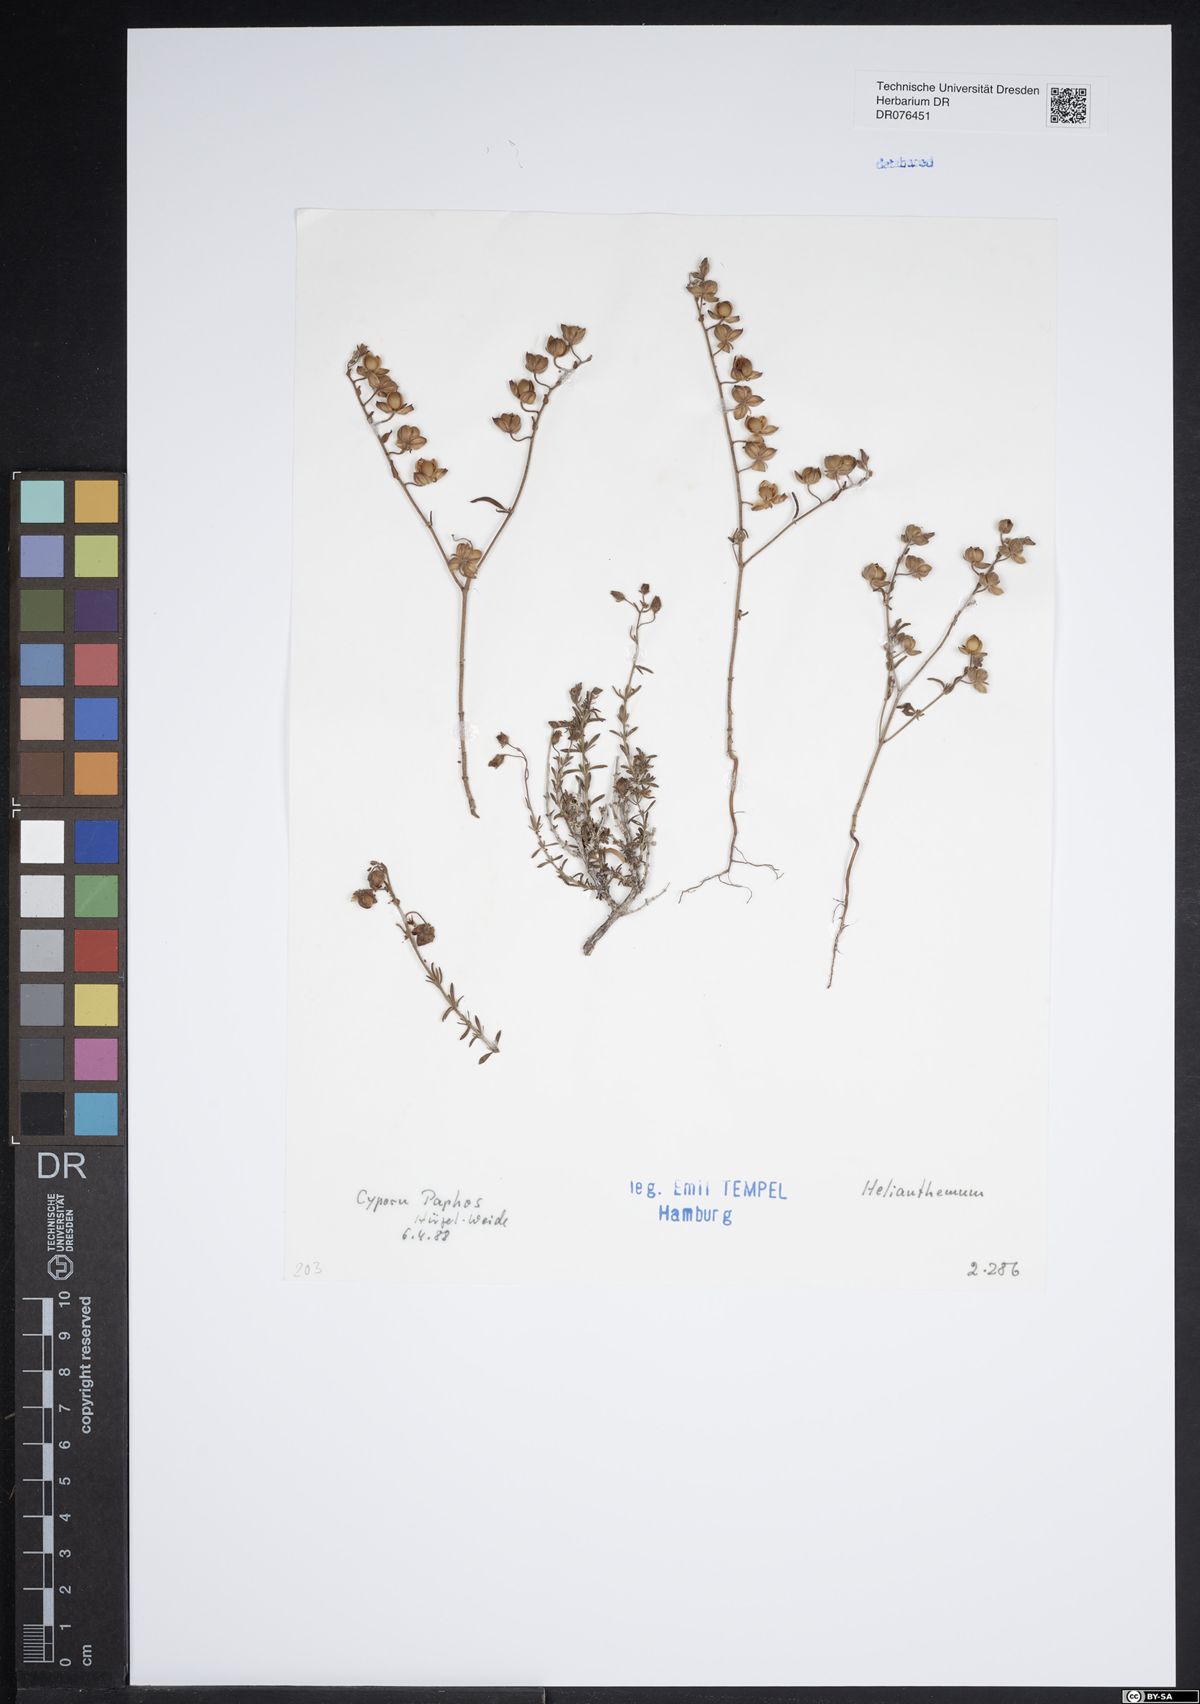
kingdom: Plantae
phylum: Tracheophyta
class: Magnoliopsida
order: Malvales
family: Cistaceae
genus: Helianthemum
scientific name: Helianthemum
